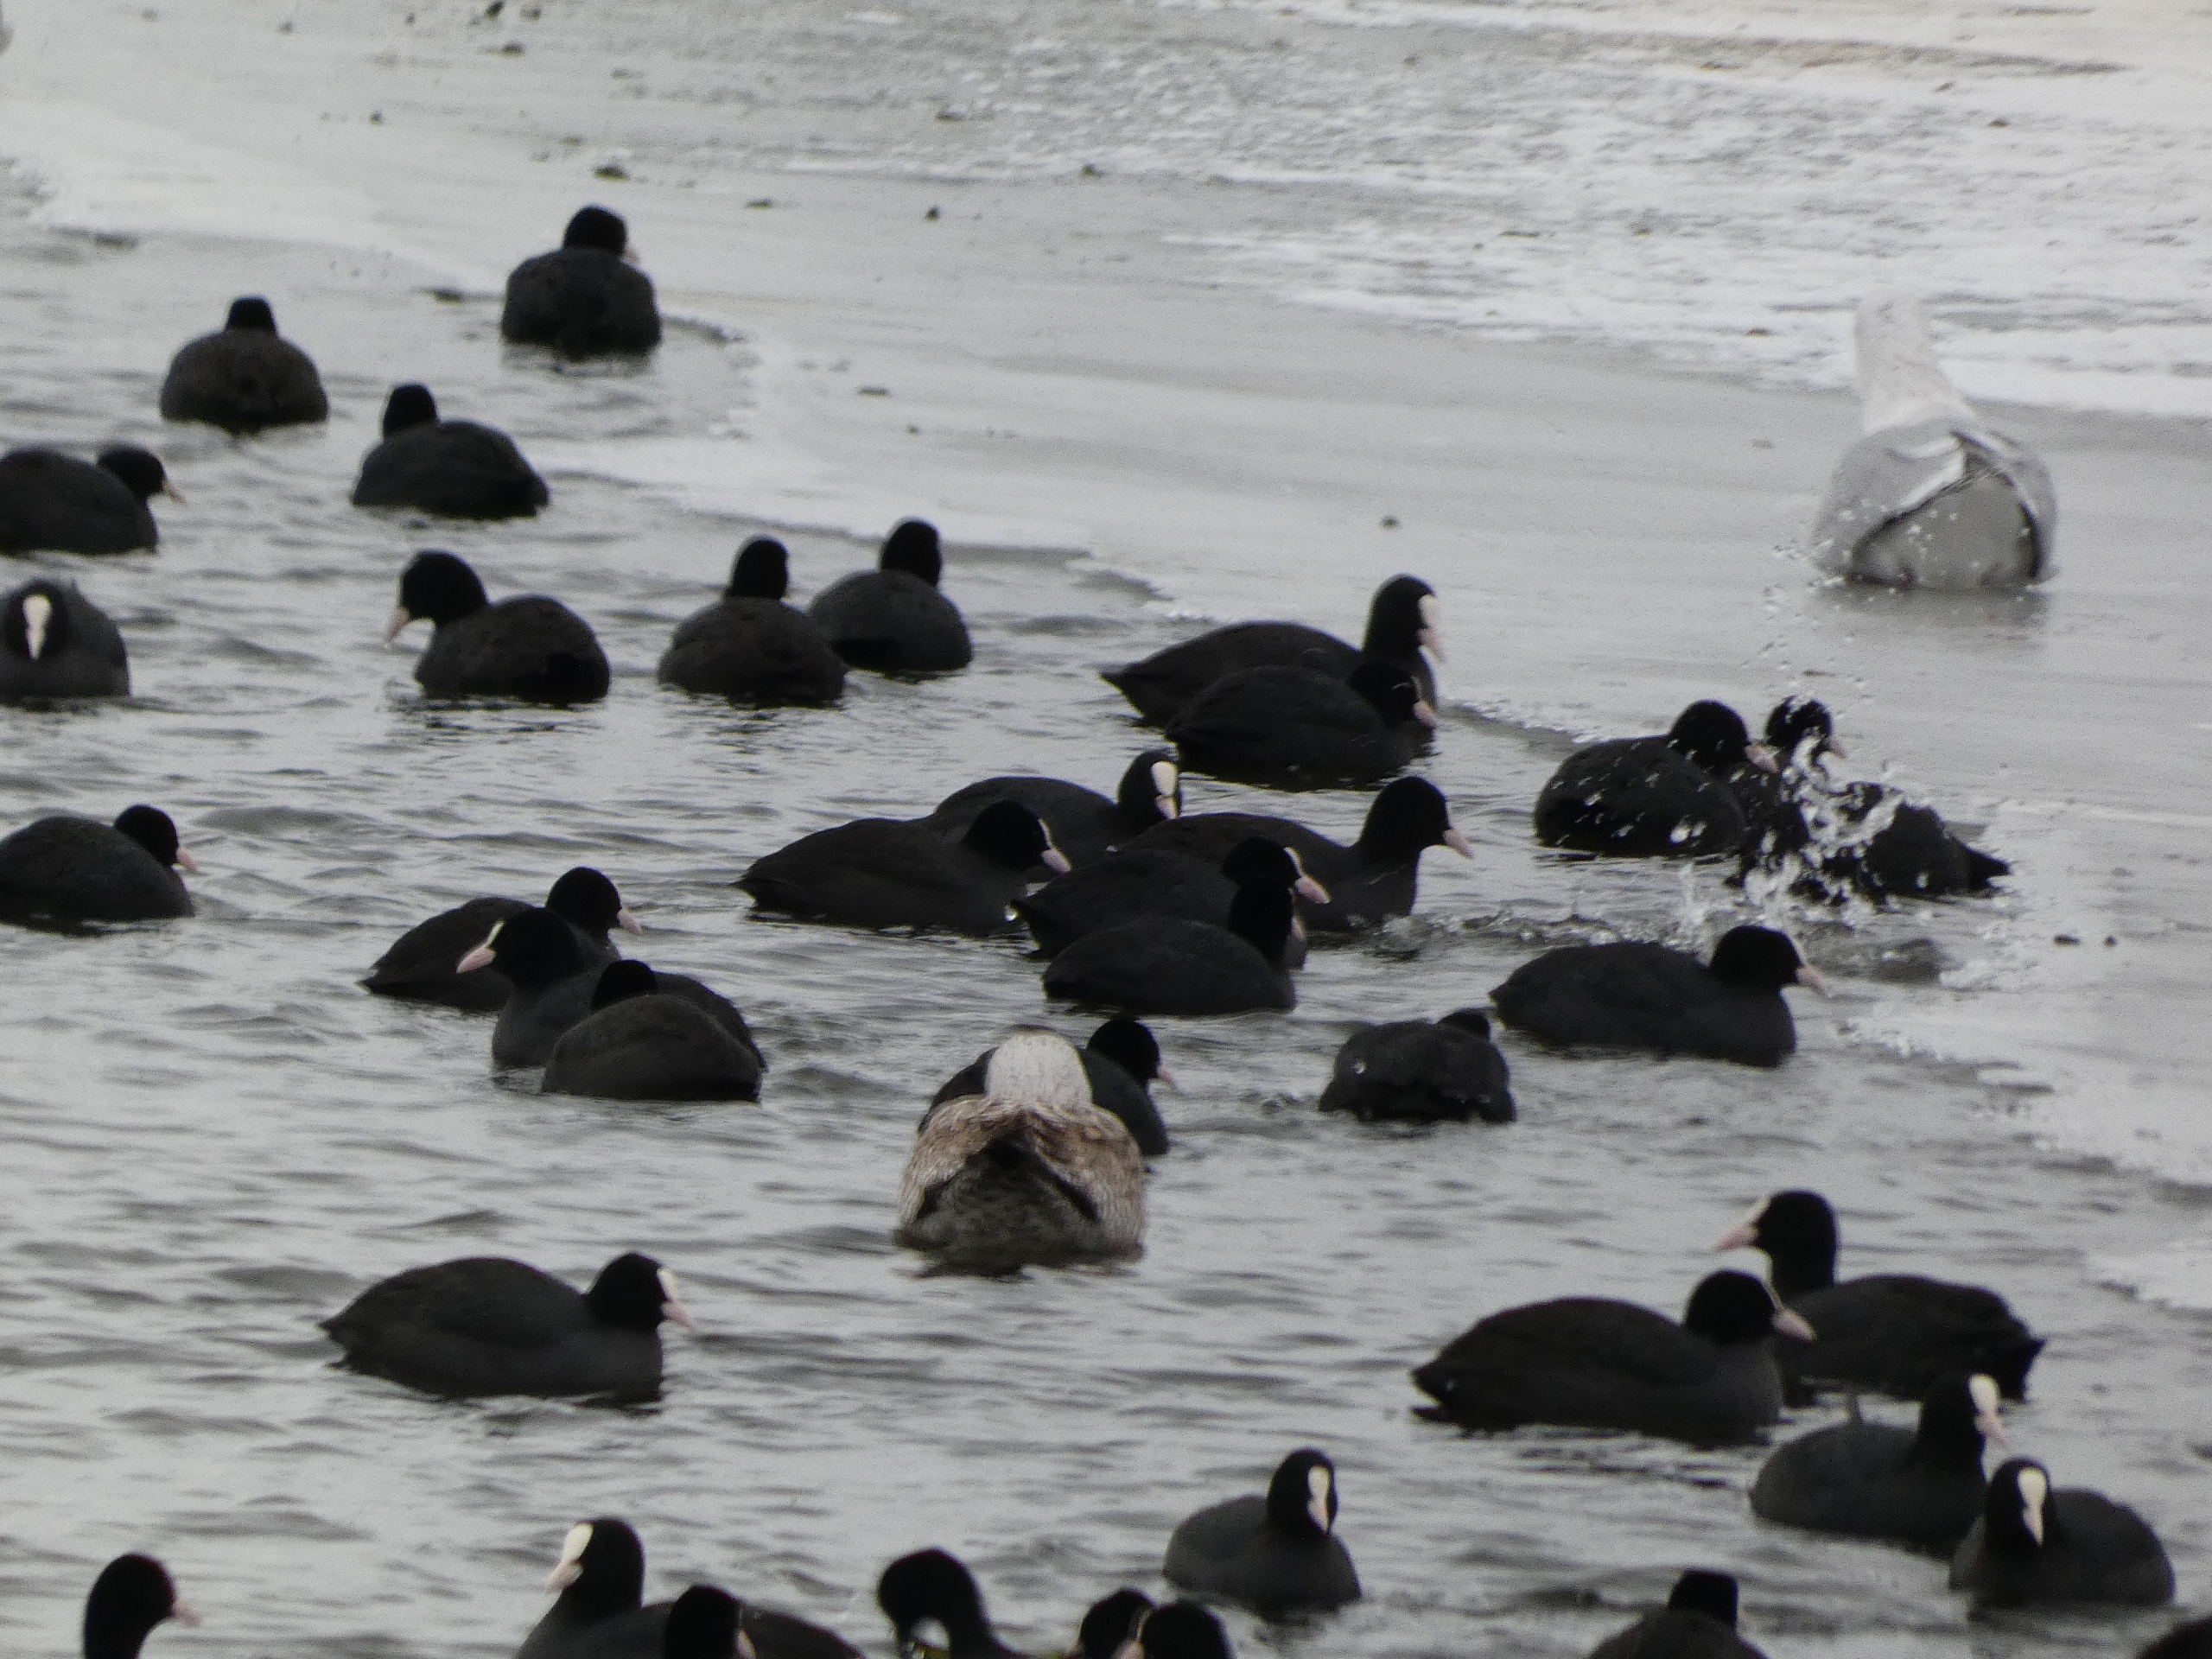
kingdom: Animalia
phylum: Chordata
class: Aves
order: Gruiformes
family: Rallidae
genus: Fulica
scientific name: Fulica atra
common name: Blishøne
